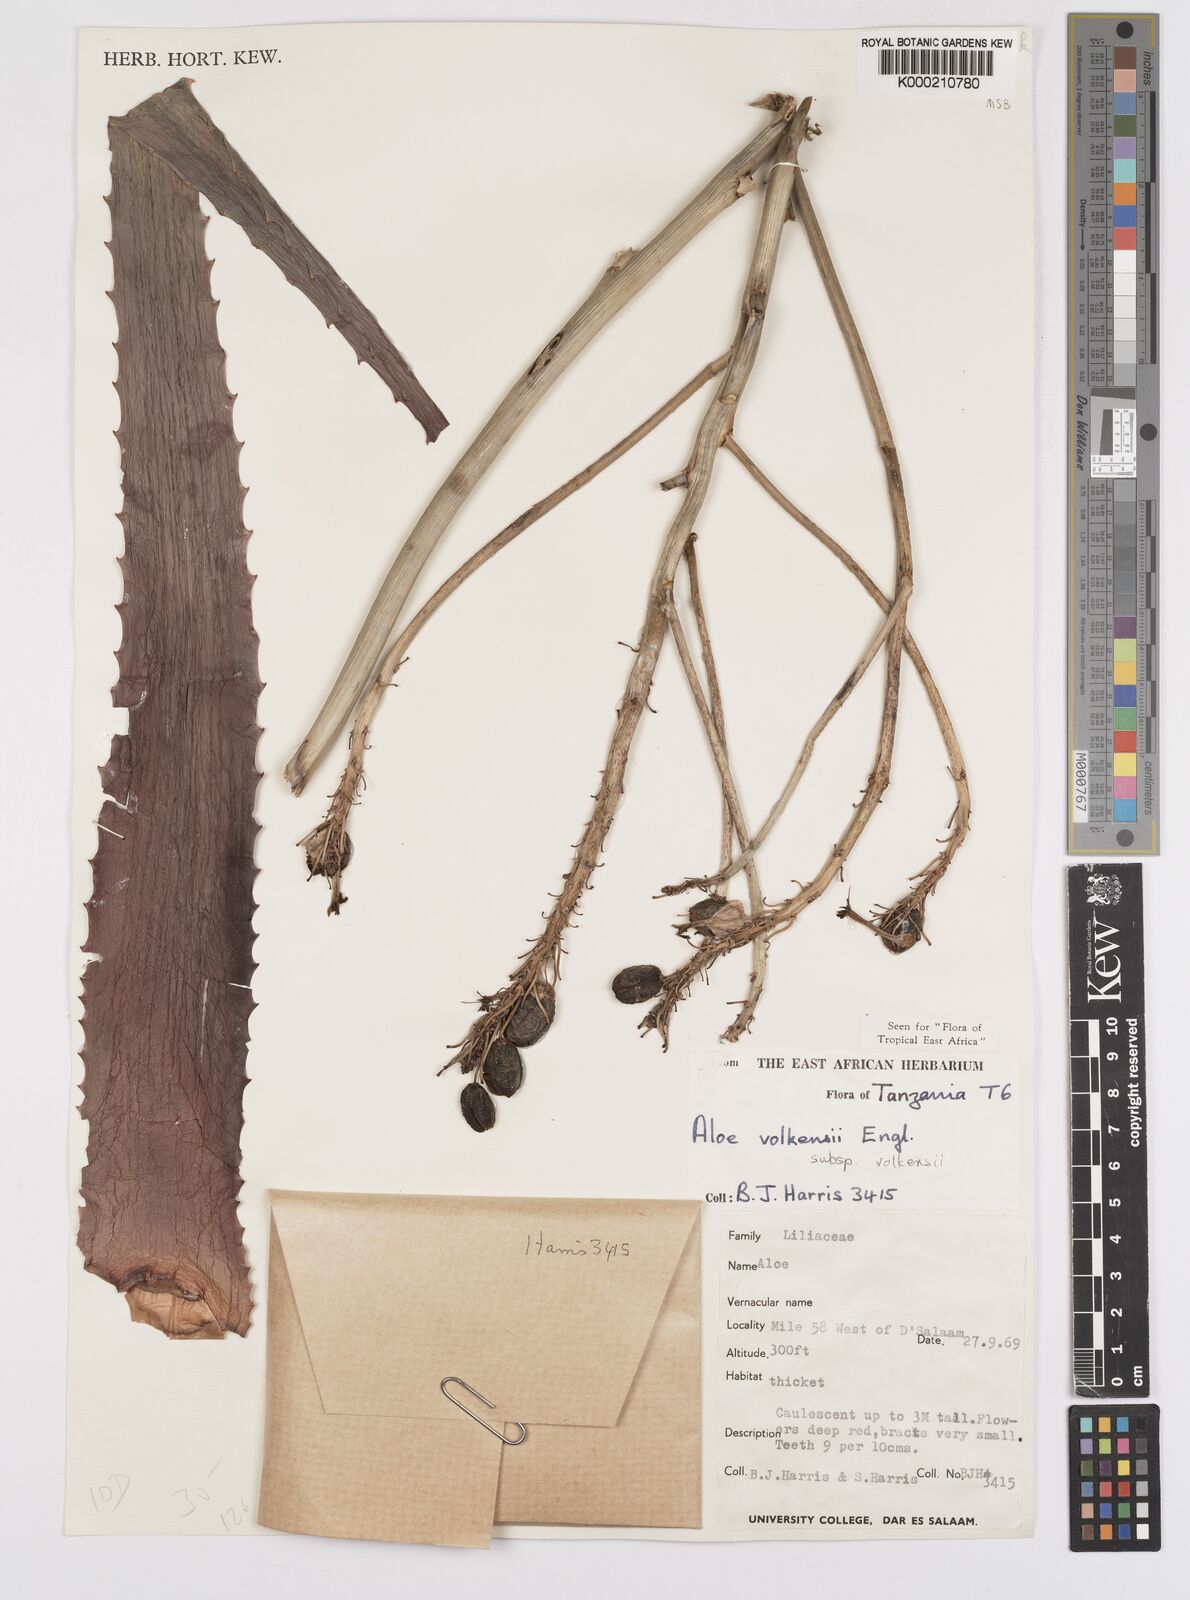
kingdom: Plantae
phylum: Tracheophyta
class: Liliopsida
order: Asparagales
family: Asphodelaceae
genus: Aloe
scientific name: Aloe volkensii
